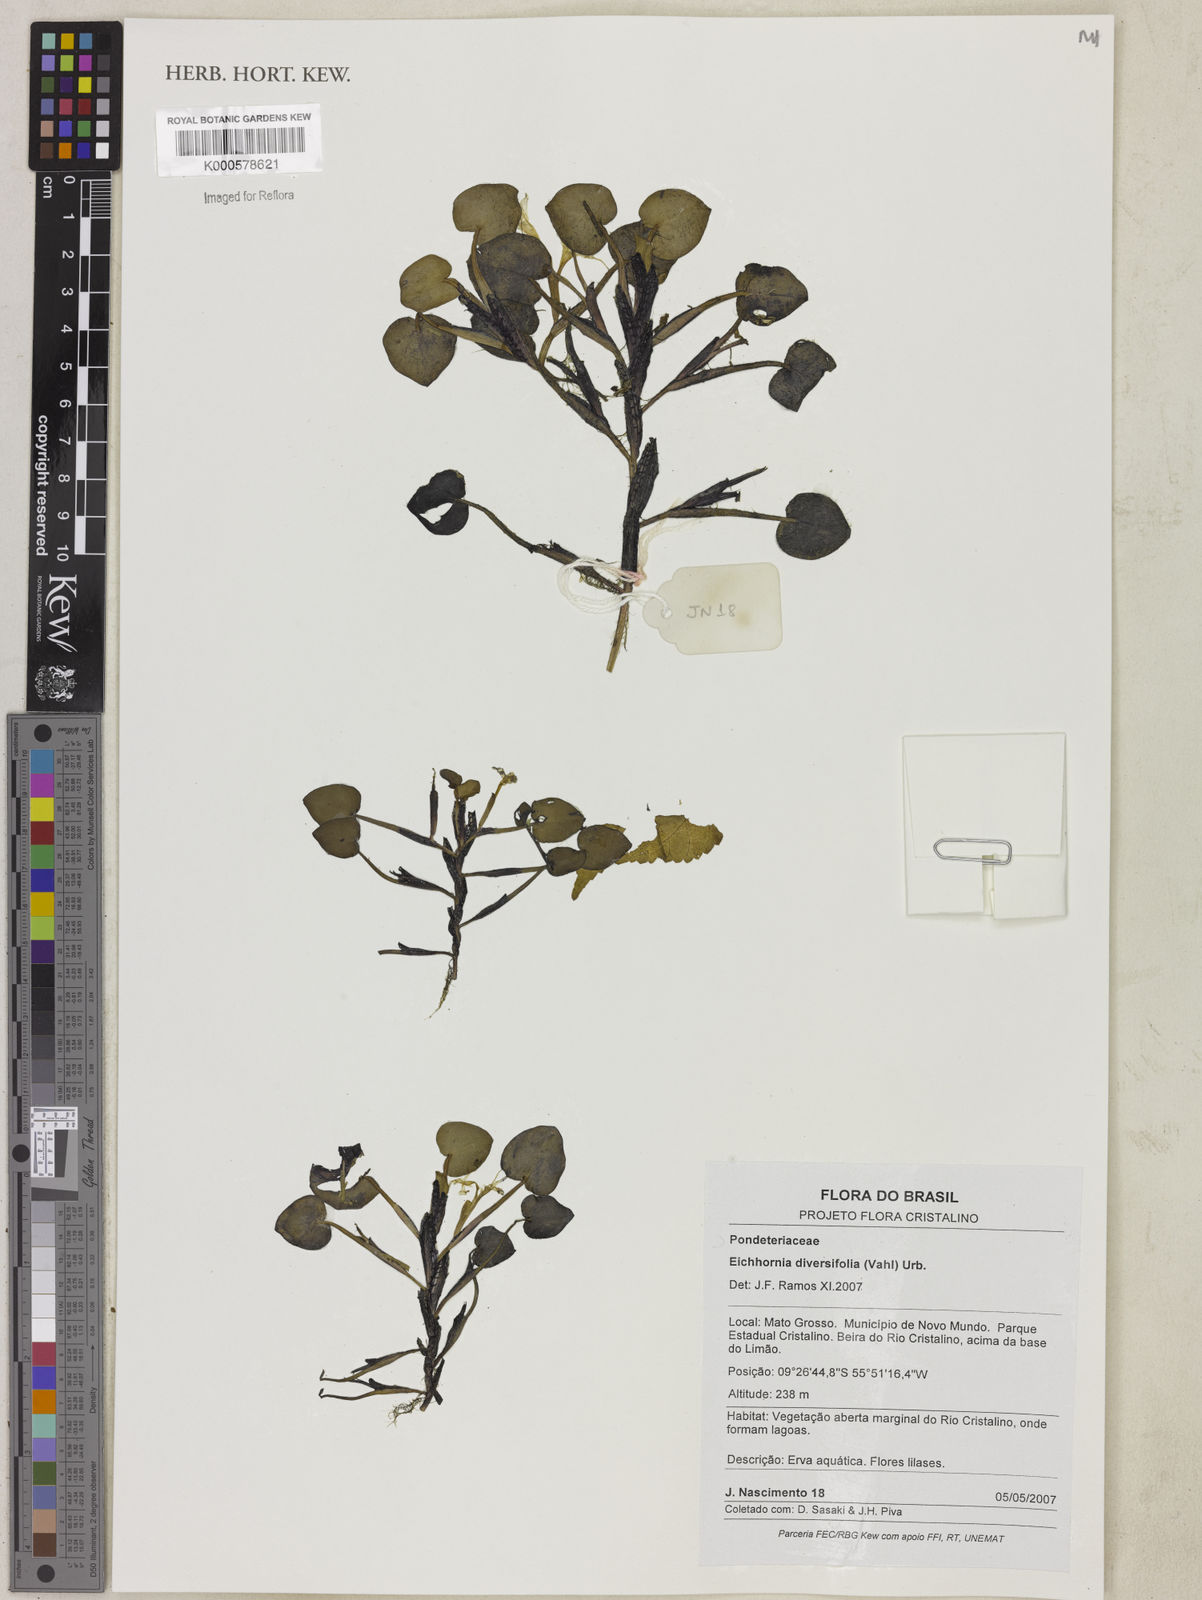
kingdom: Plantae
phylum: Tracheophyta
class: Liliopsida
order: Commelinales
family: Pontederiaceae
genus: Pontederia
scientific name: Pontederia diversifolia
